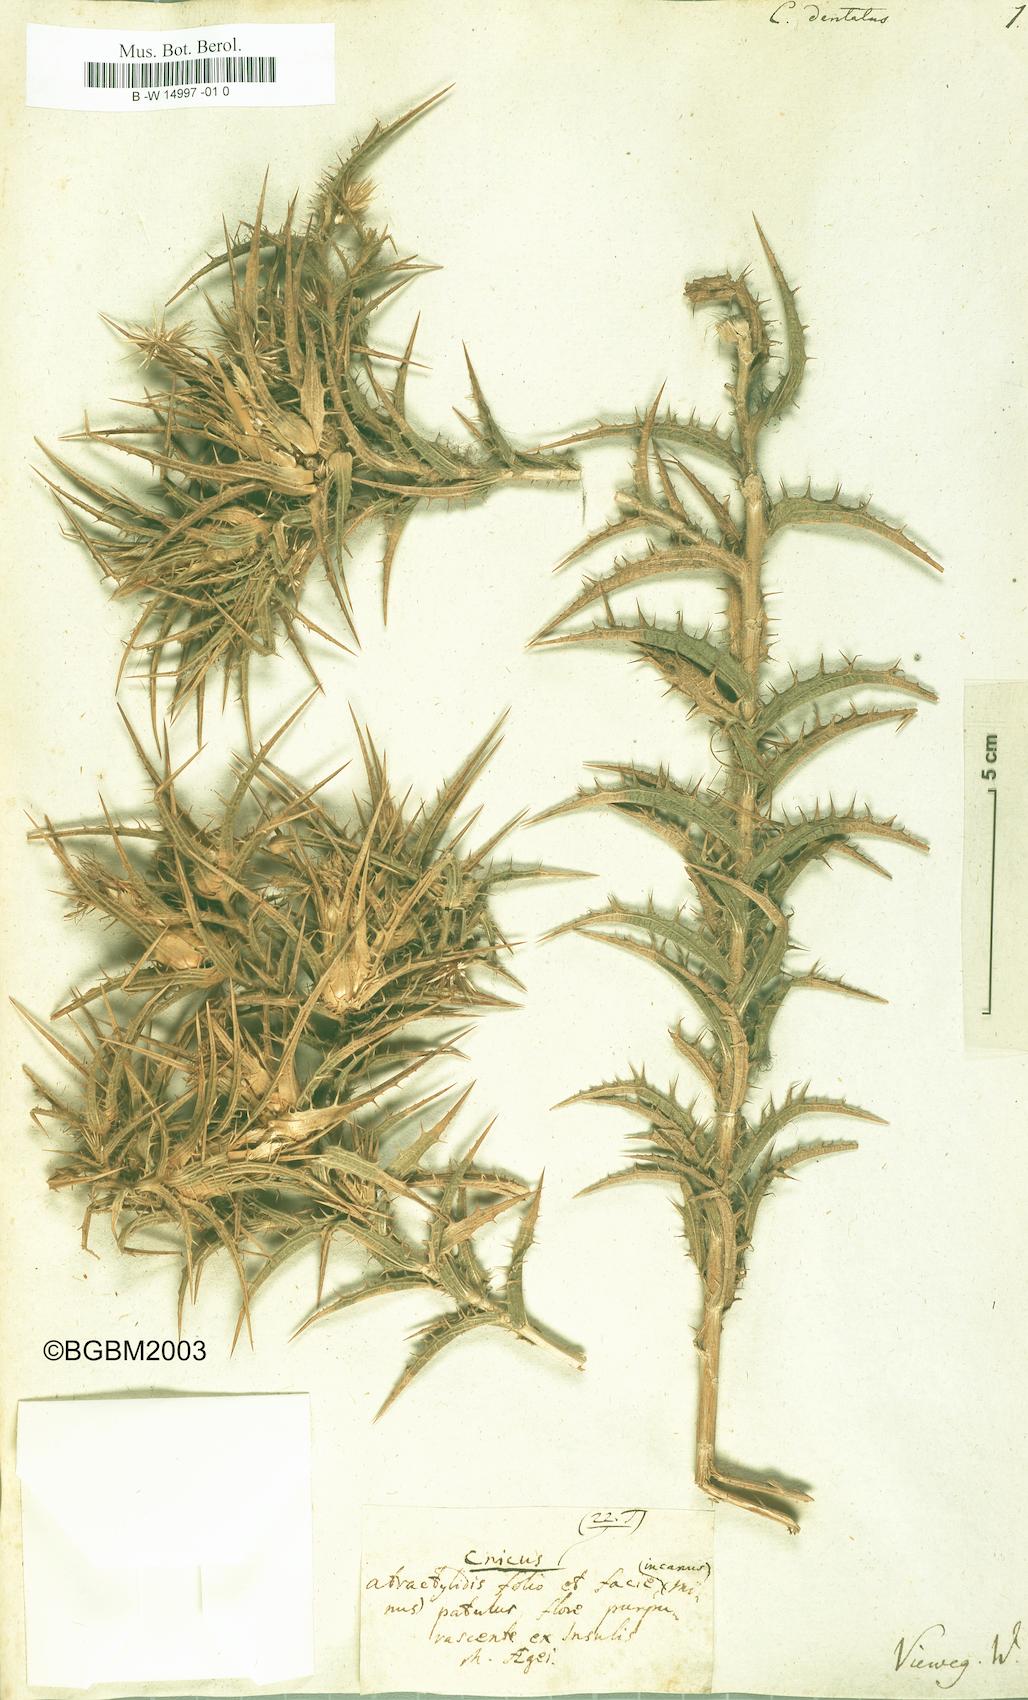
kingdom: Plantae
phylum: Tracheophyta
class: Magnoliopsida
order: Asterales
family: Asteraceae
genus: Carthamus
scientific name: Carthamus dentatus
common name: Toothed thistle
